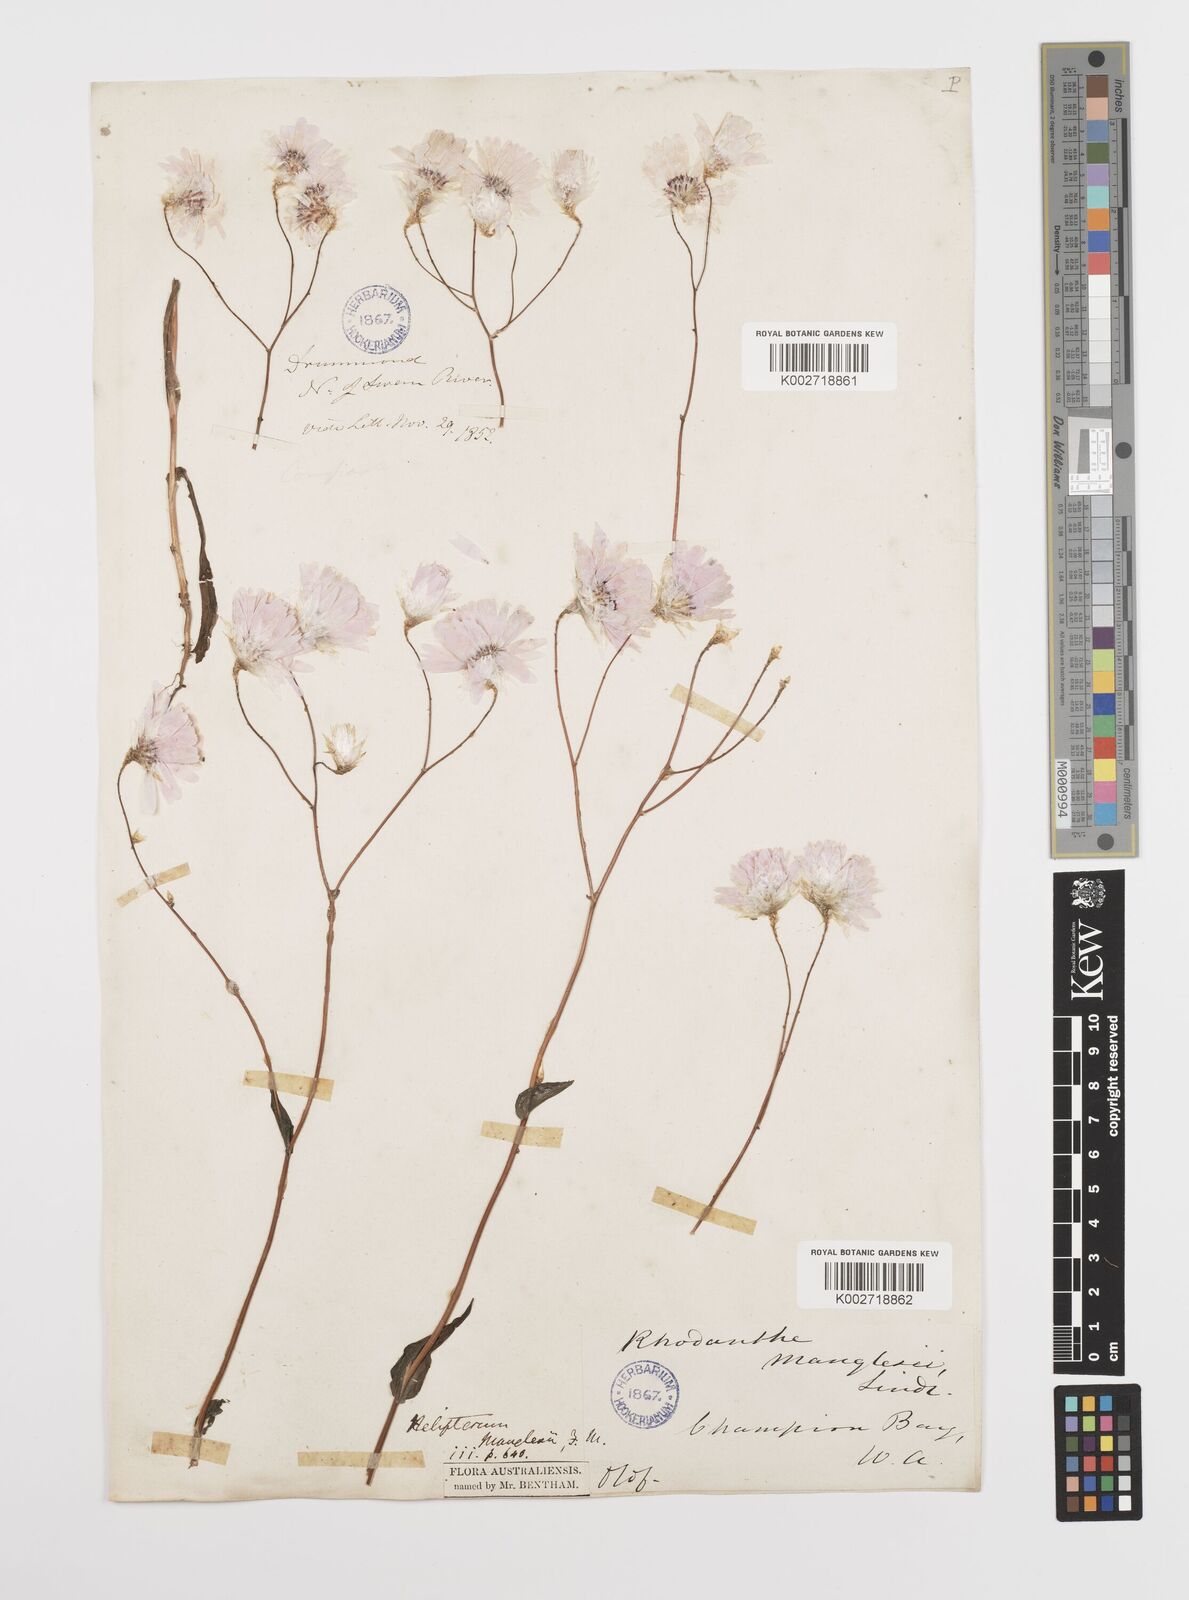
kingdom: Plantae
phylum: Tracheophyta
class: Magnoliopsida
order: Asterales
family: Asteraceae
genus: Rhodanthe
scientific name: Rhodanthe manglesii
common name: Pink sunray
